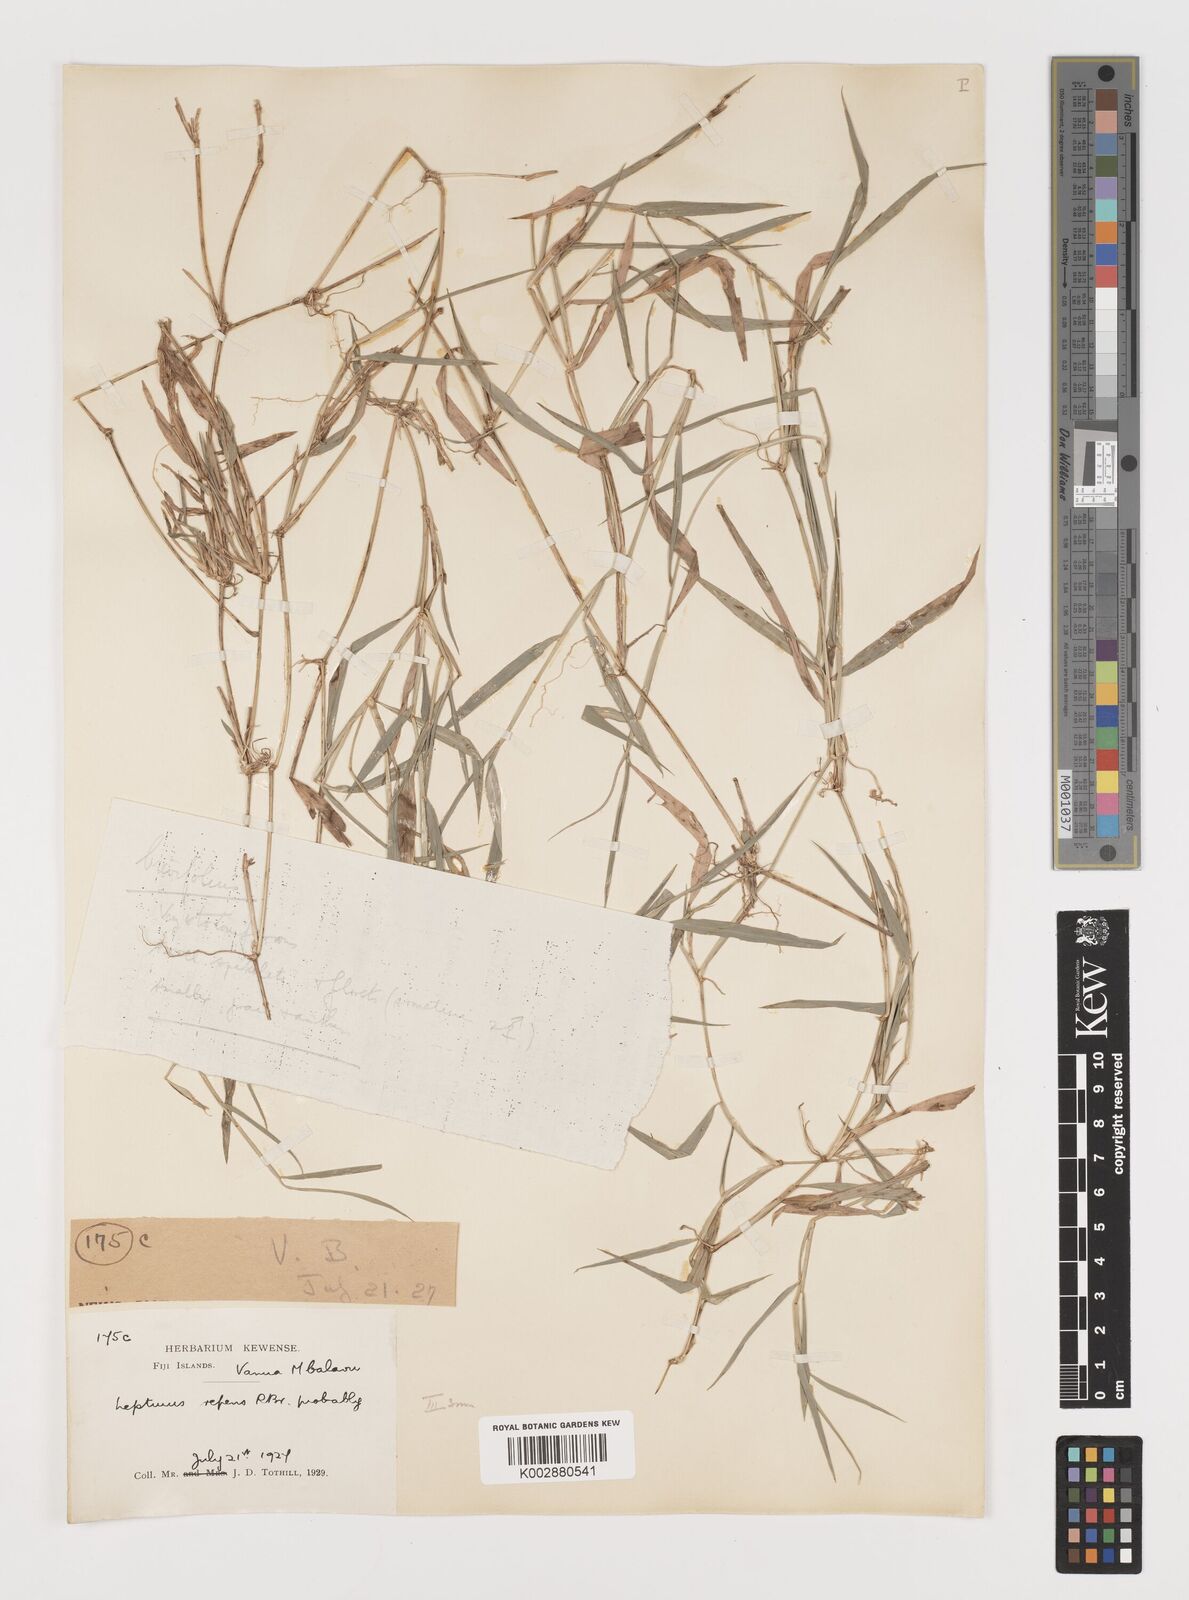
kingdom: Plantae
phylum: Tracheophyta
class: Liliopsida
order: Poales
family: Poaceae
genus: Lepturus
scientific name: Lepturus repens
